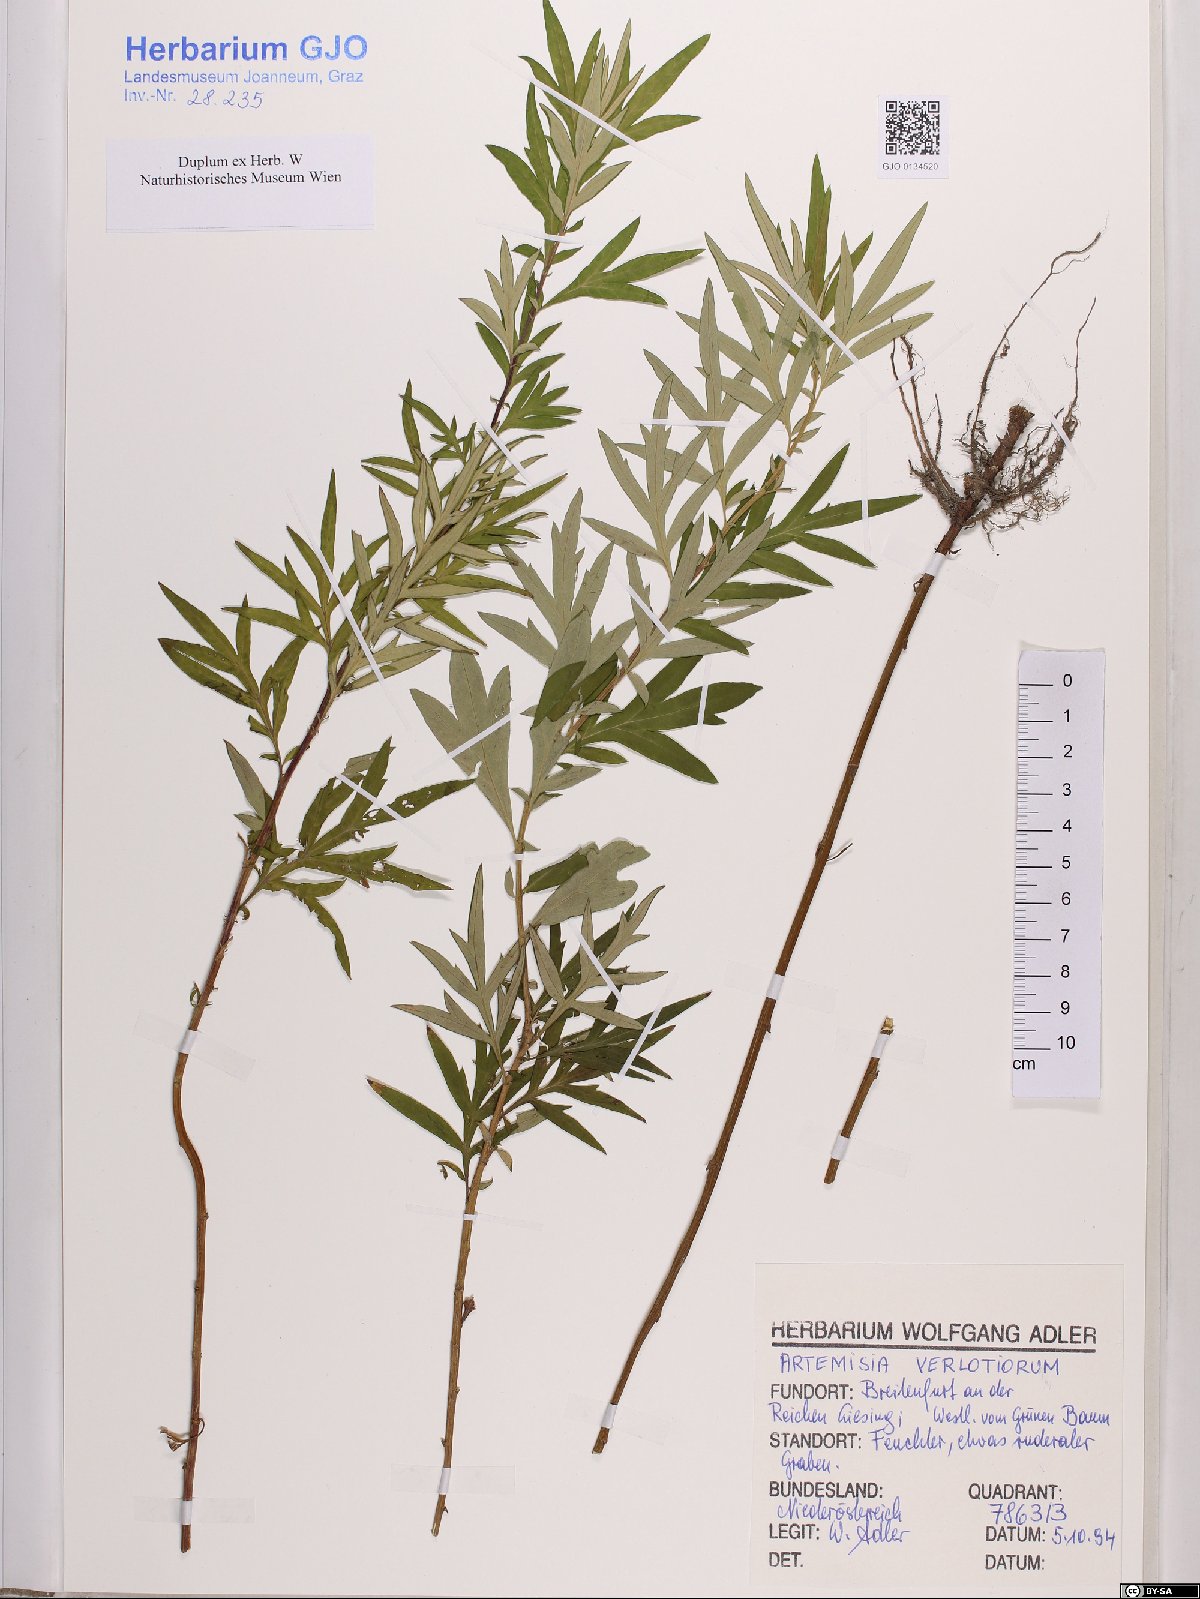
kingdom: Plantae
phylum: Tracheophyta
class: Magnoliopsida
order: Asterales
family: Asteraceae
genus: Artemisia
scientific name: Artemisia verlotiorum
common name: Chinese mugwort
